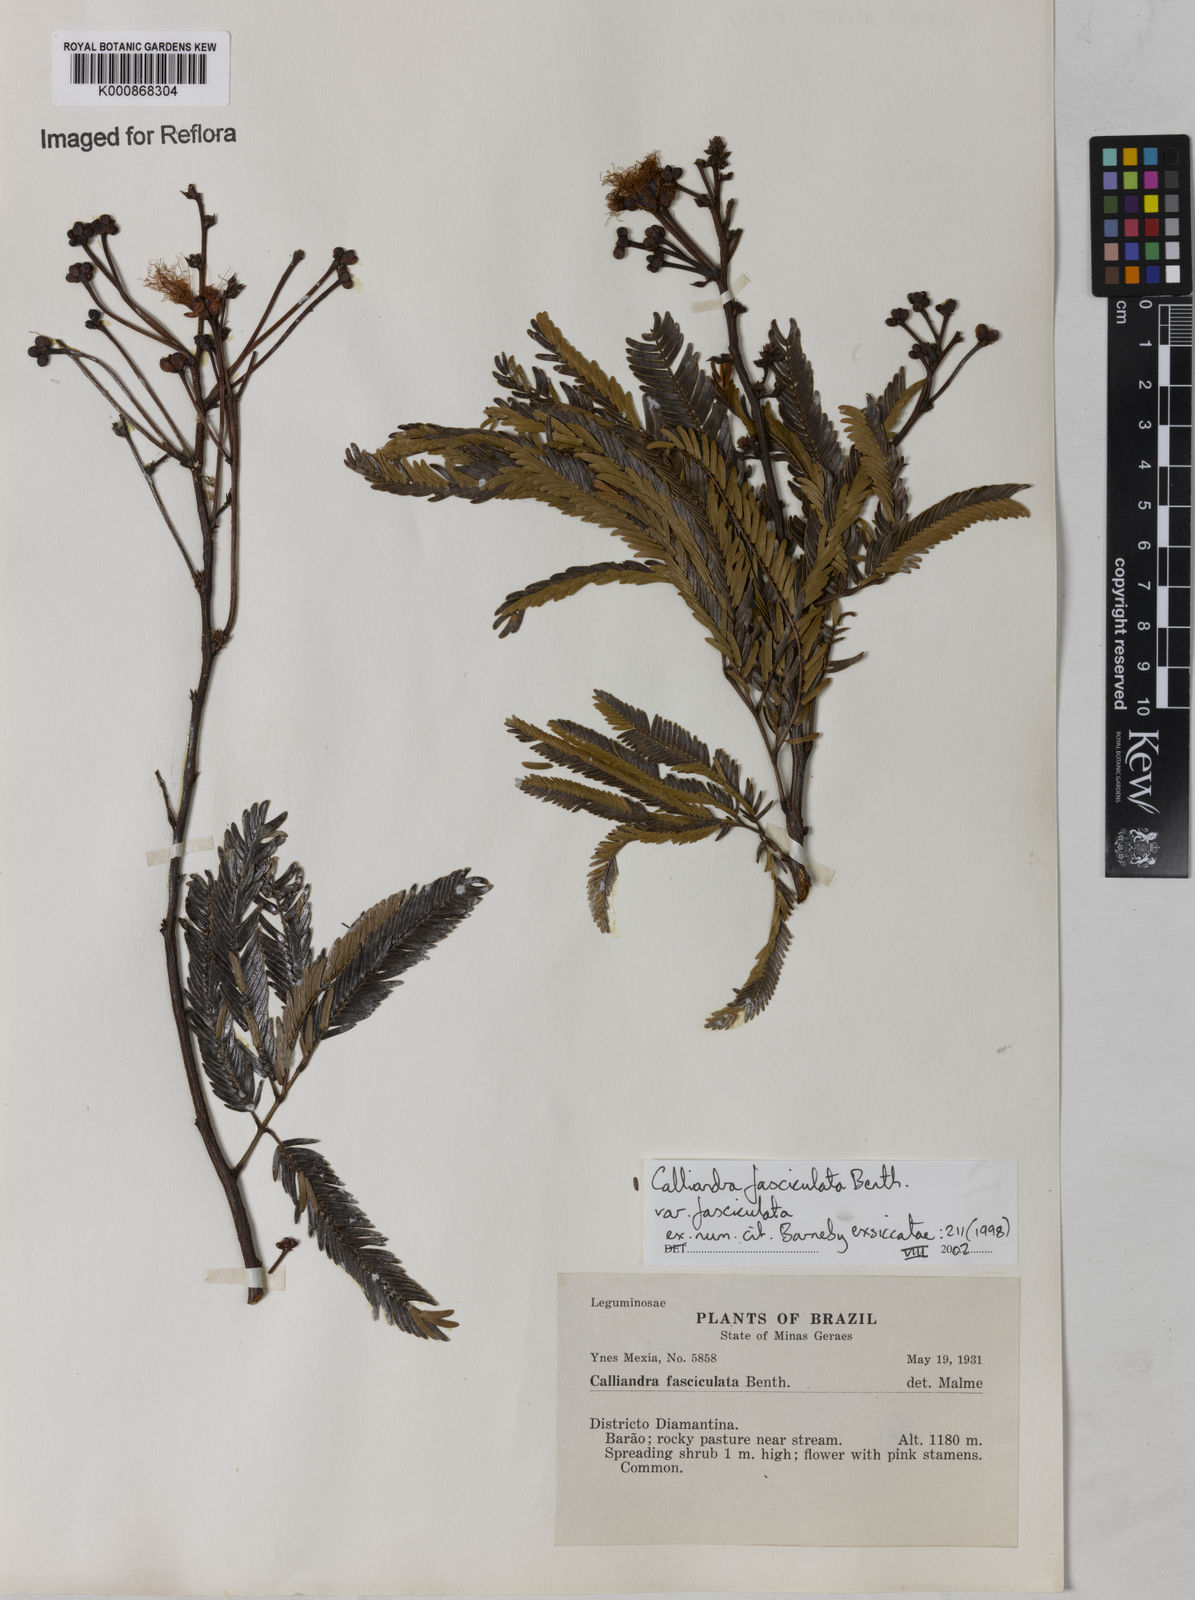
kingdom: Plantae
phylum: Tracheophyta
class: Magnoliopsida
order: Fabales
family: Fabaceae
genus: Calliandra
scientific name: Calliandra fasciculata
